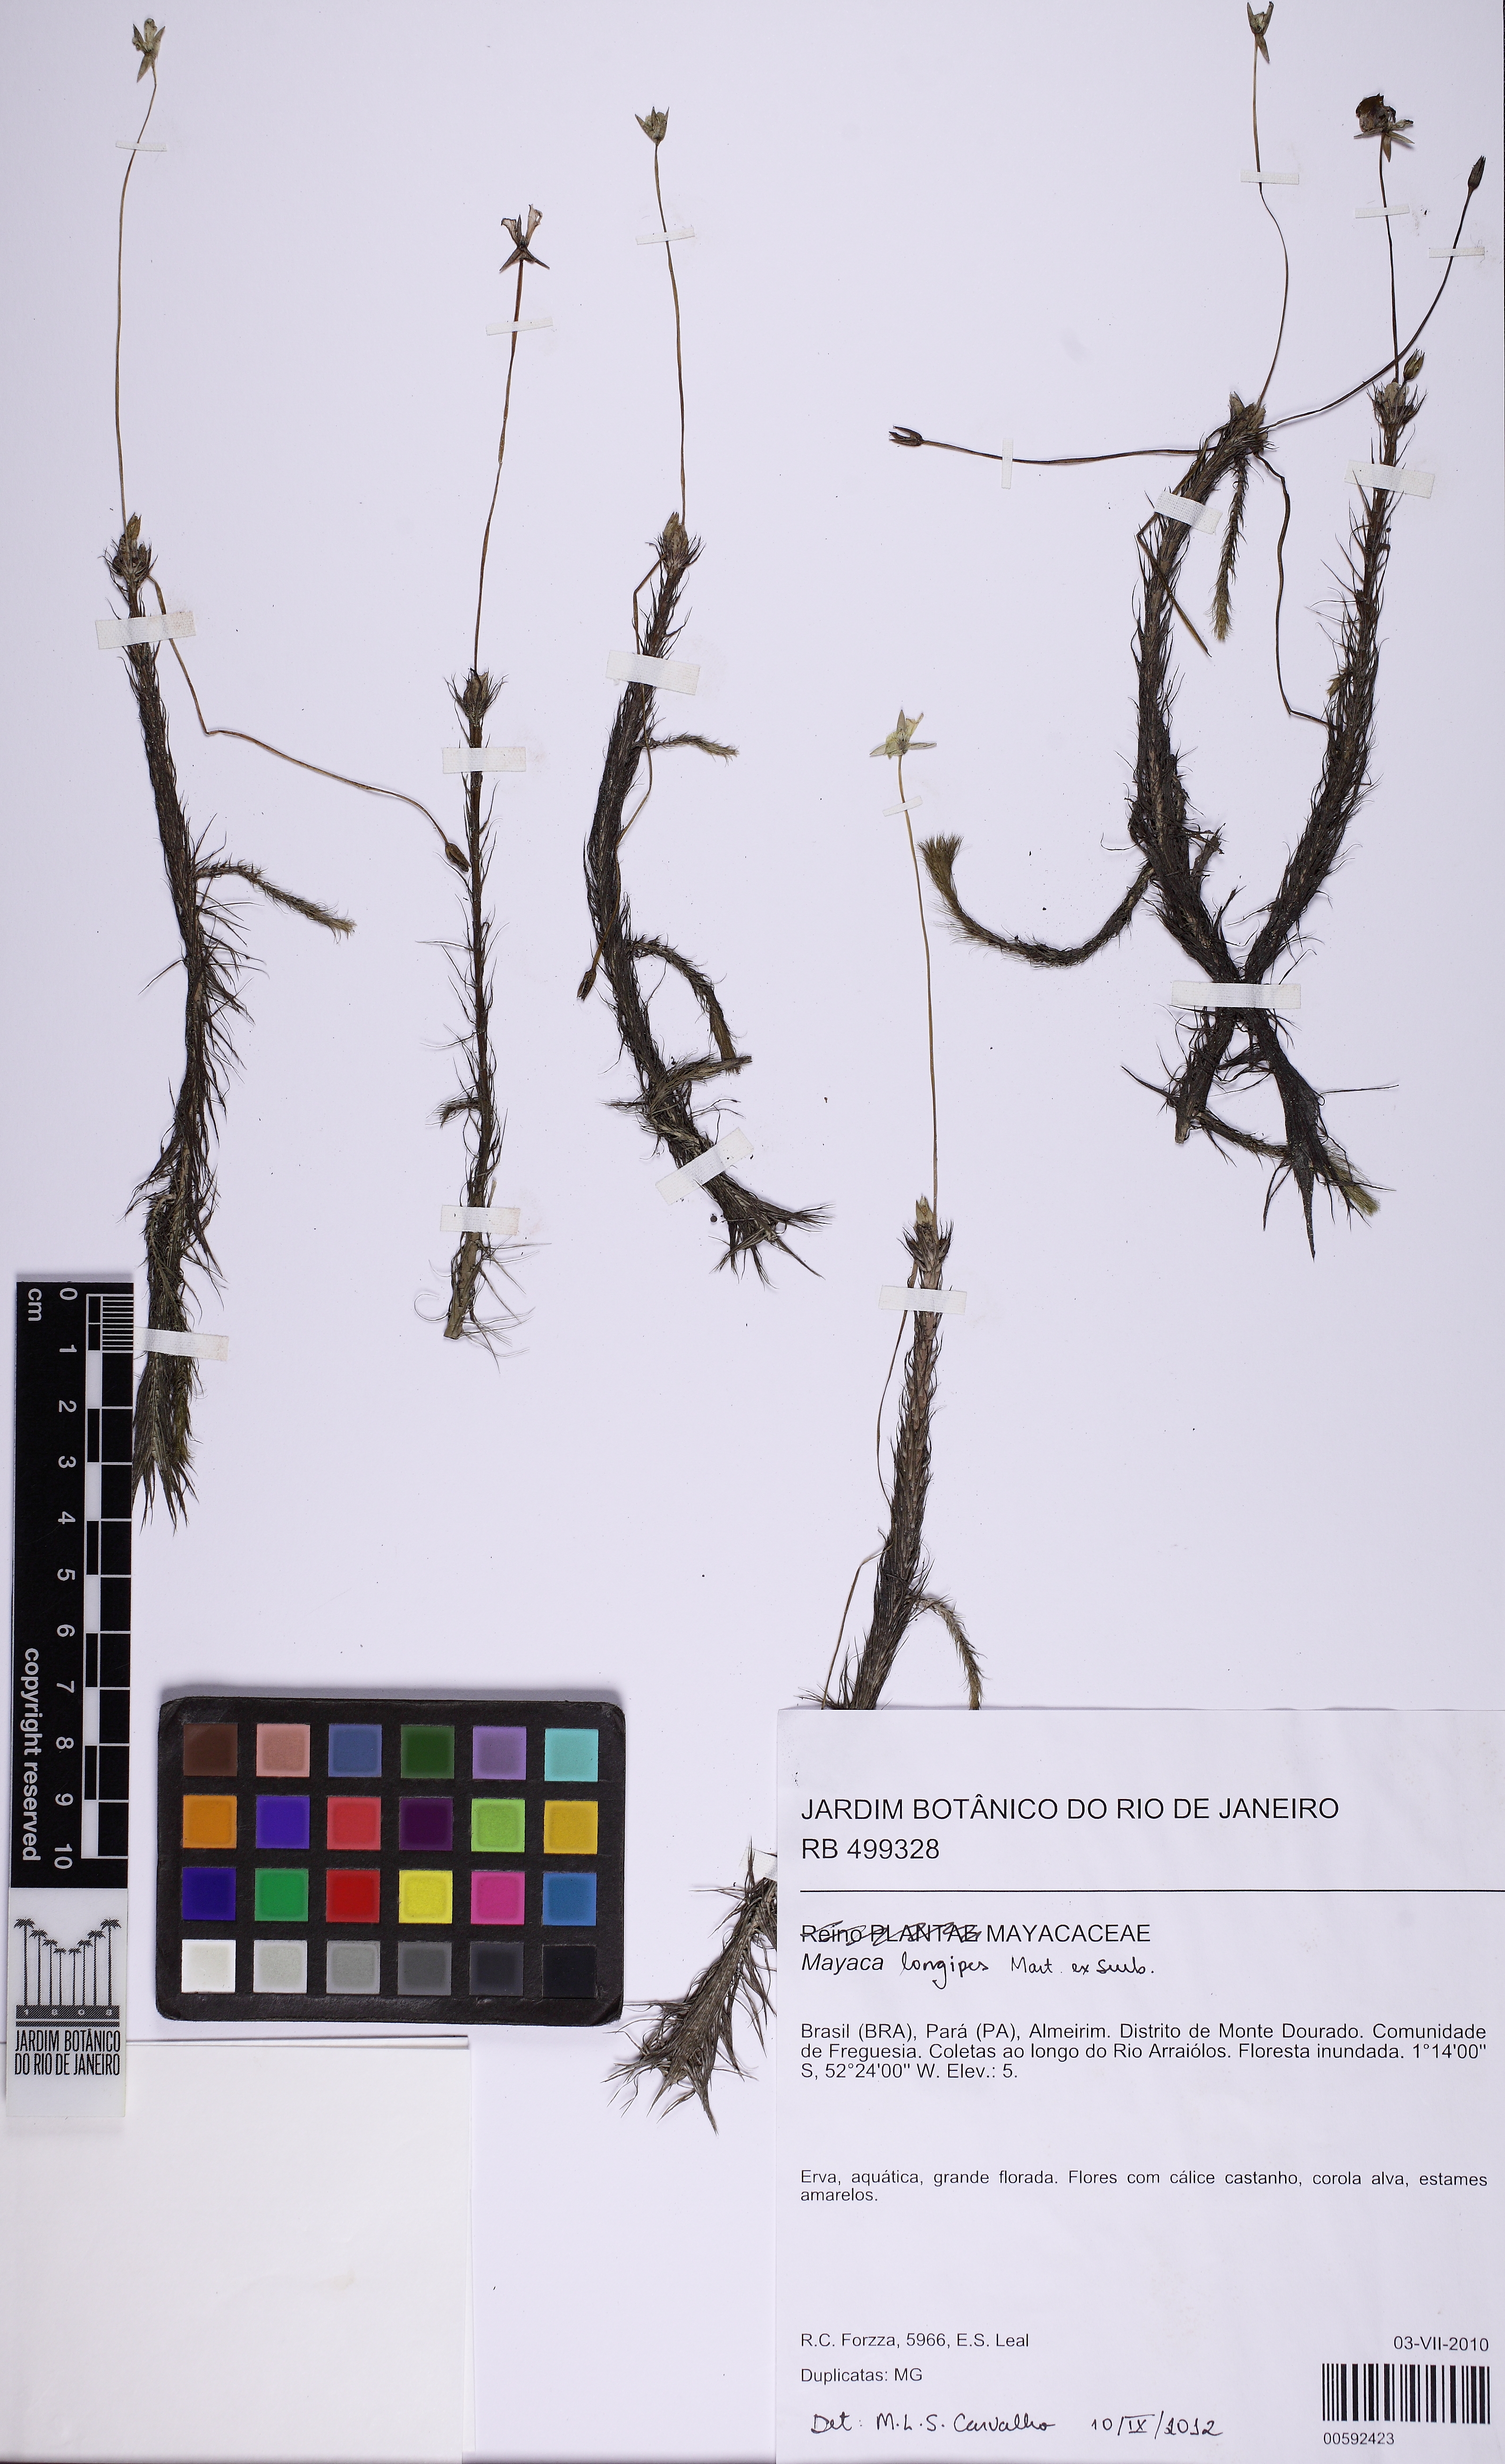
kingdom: Plantae
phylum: Tracheophyta
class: Liliopsida
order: Poales
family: Mayacaceae
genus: Mayaca
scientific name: Mayaca longipes
